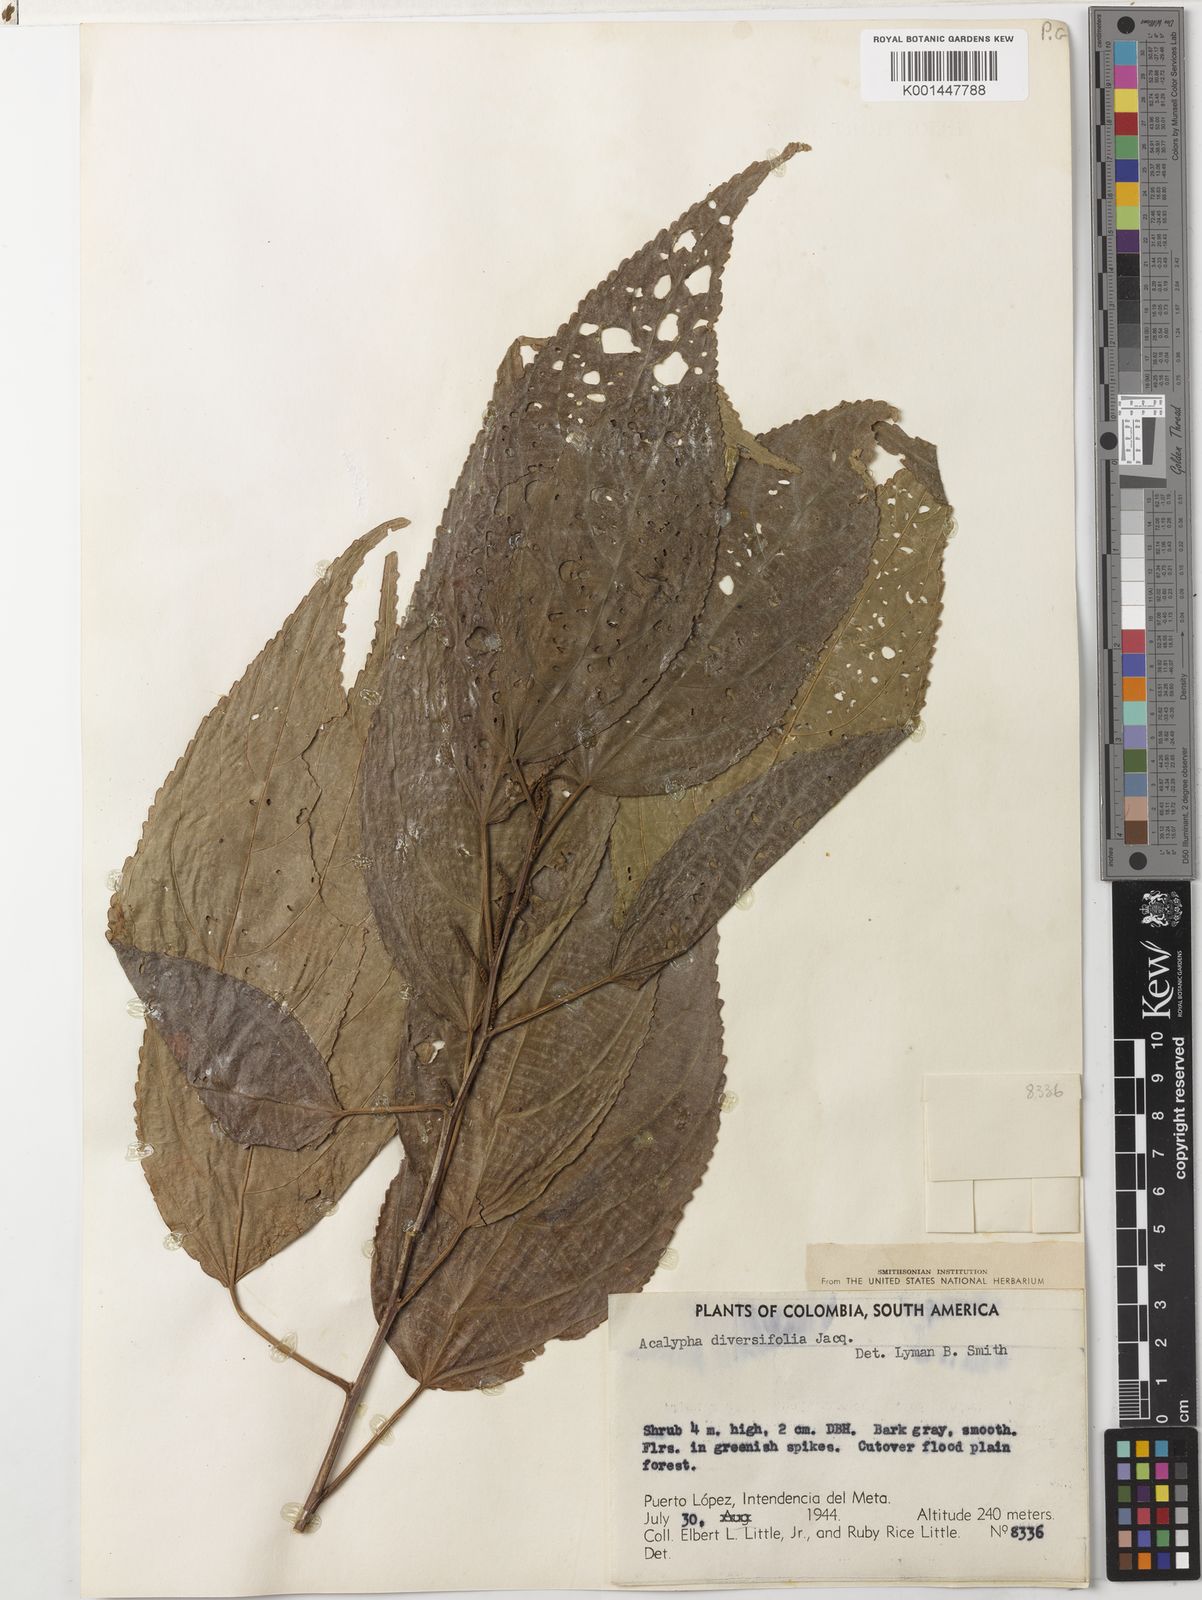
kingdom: Plantae
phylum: Tracheophyta
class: Magnoliopsida
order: Malpighiales
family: Euphorbiaceae
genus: Acalypha
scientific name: Acalypha diversifolia
